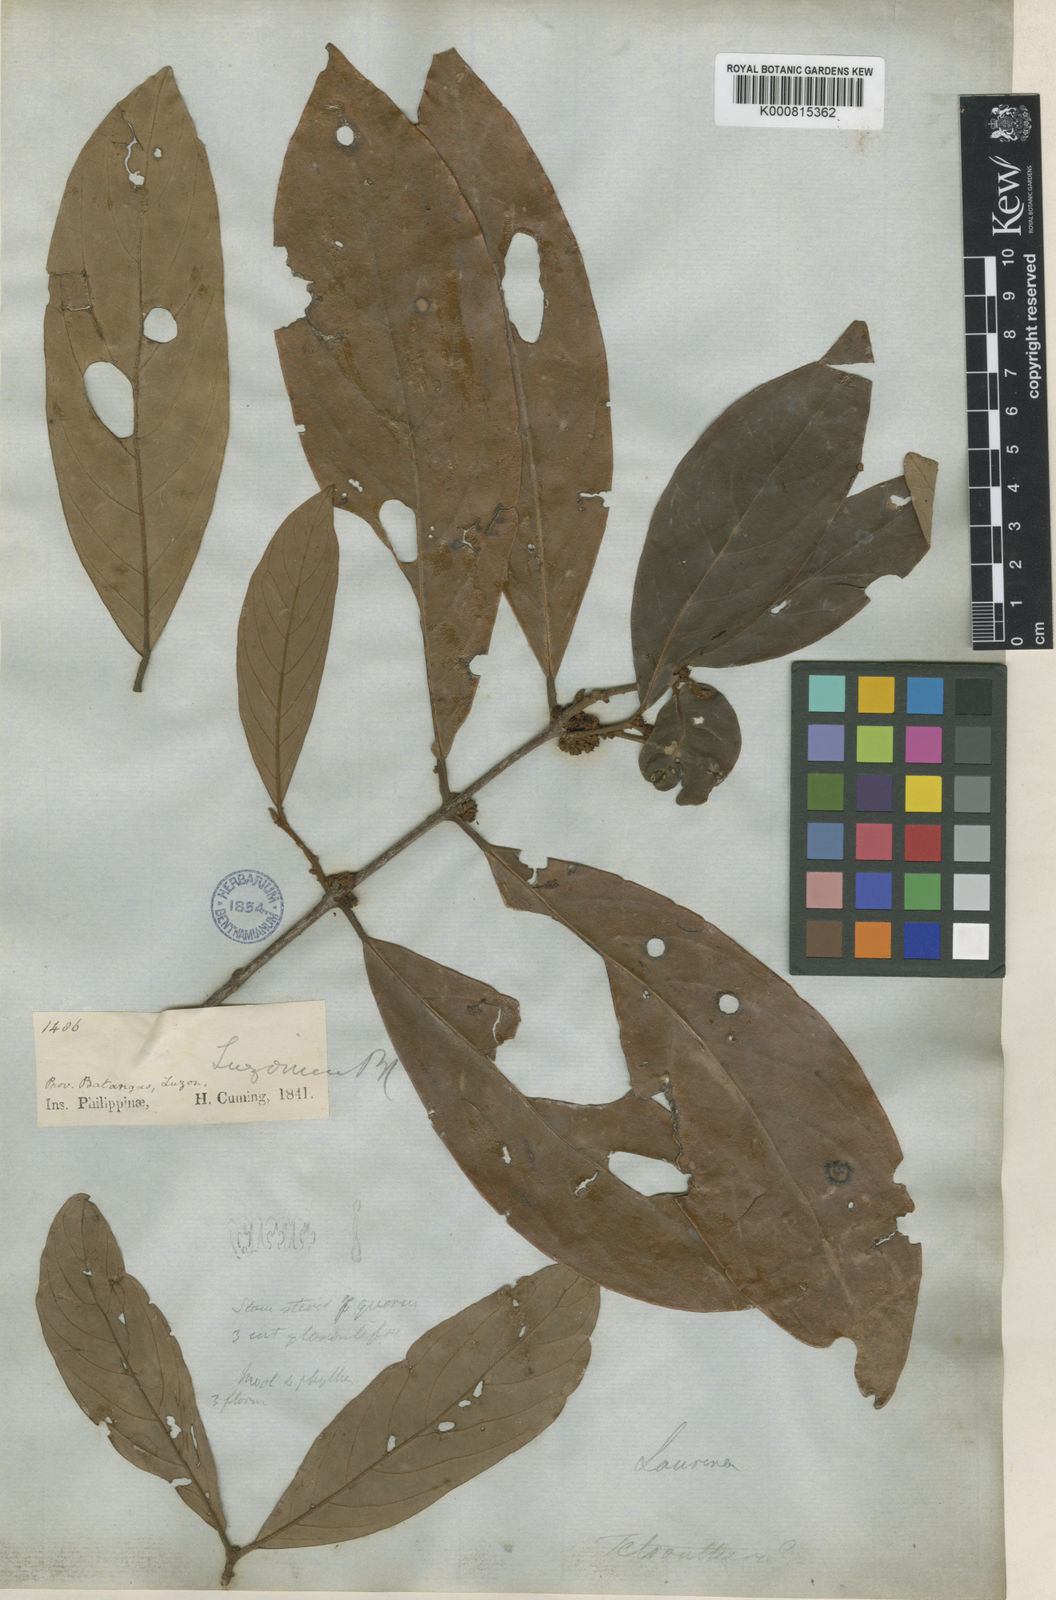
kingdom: Plantae
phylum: Tracheophyta
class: Magnoliopsida
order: Laurales
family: Lauraceae
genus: Litsea
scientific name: Litsea
